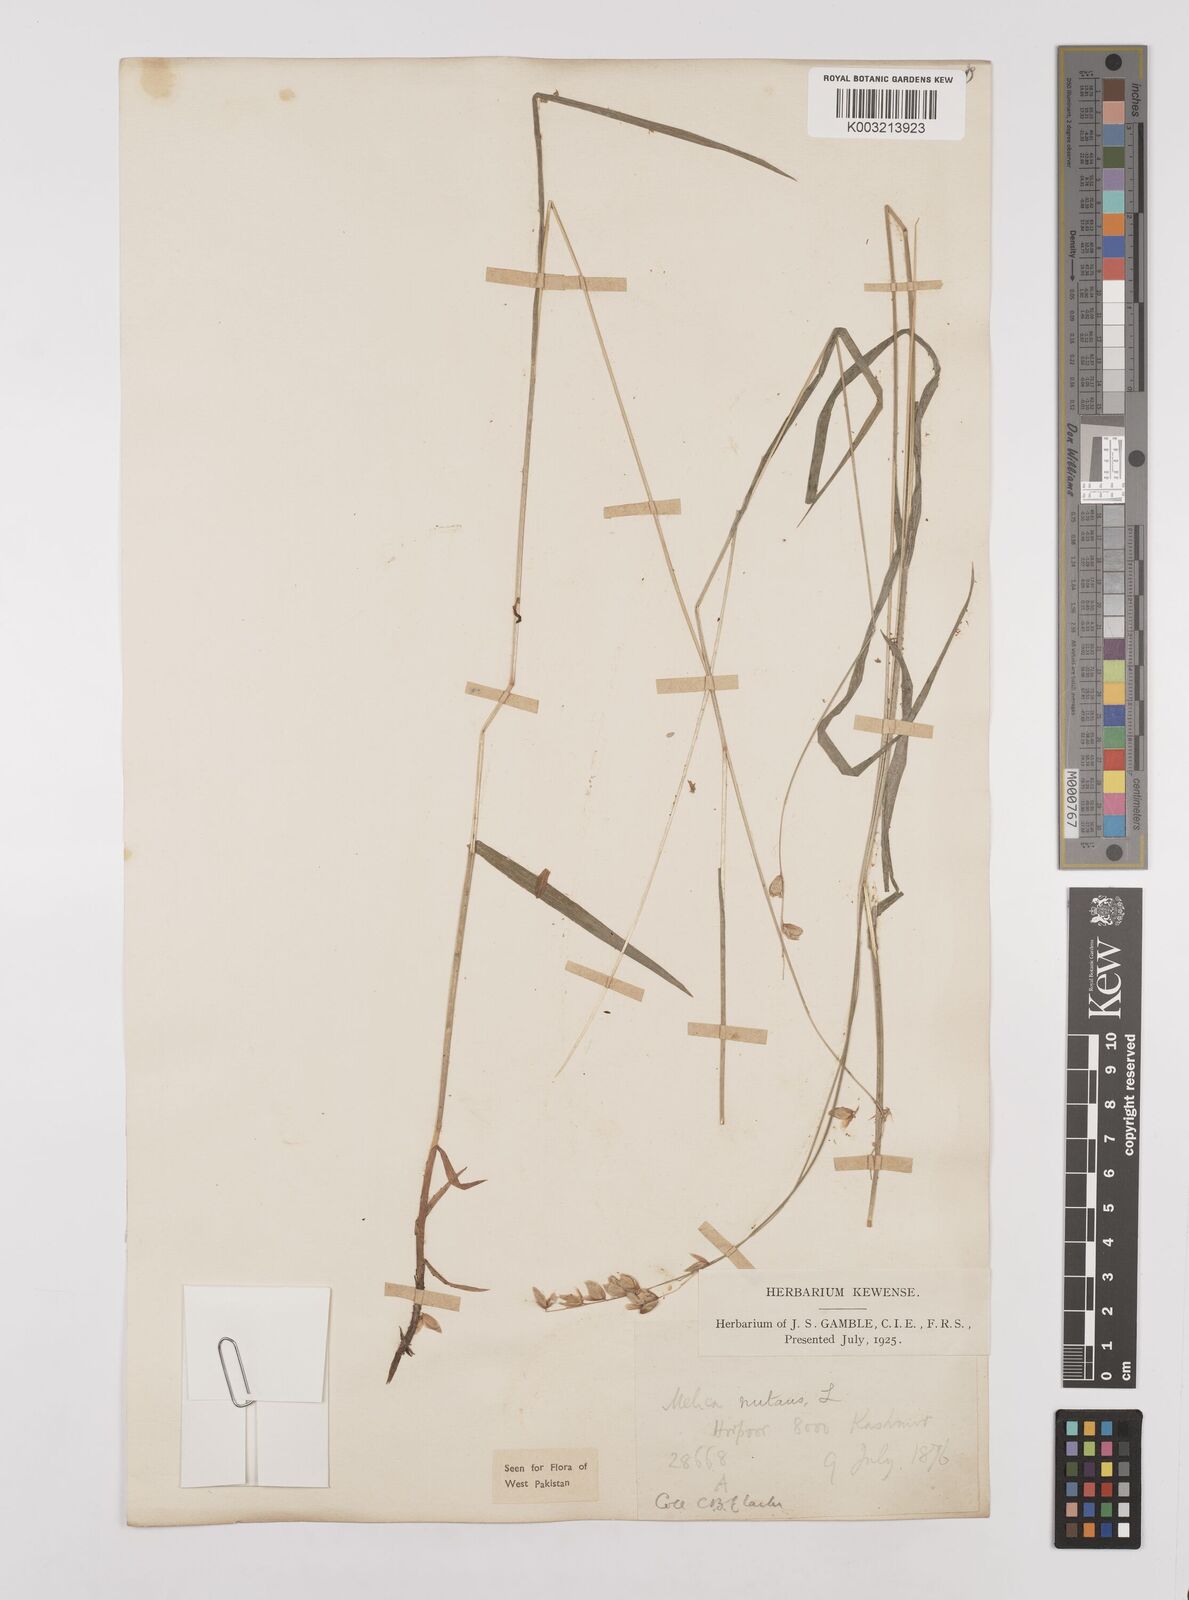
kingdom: Plantae
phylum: Tracheophyta
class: Liliopsida
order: Poales
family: Poaceae
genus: Melica
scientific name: Melica nutans
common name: Mountain melick
